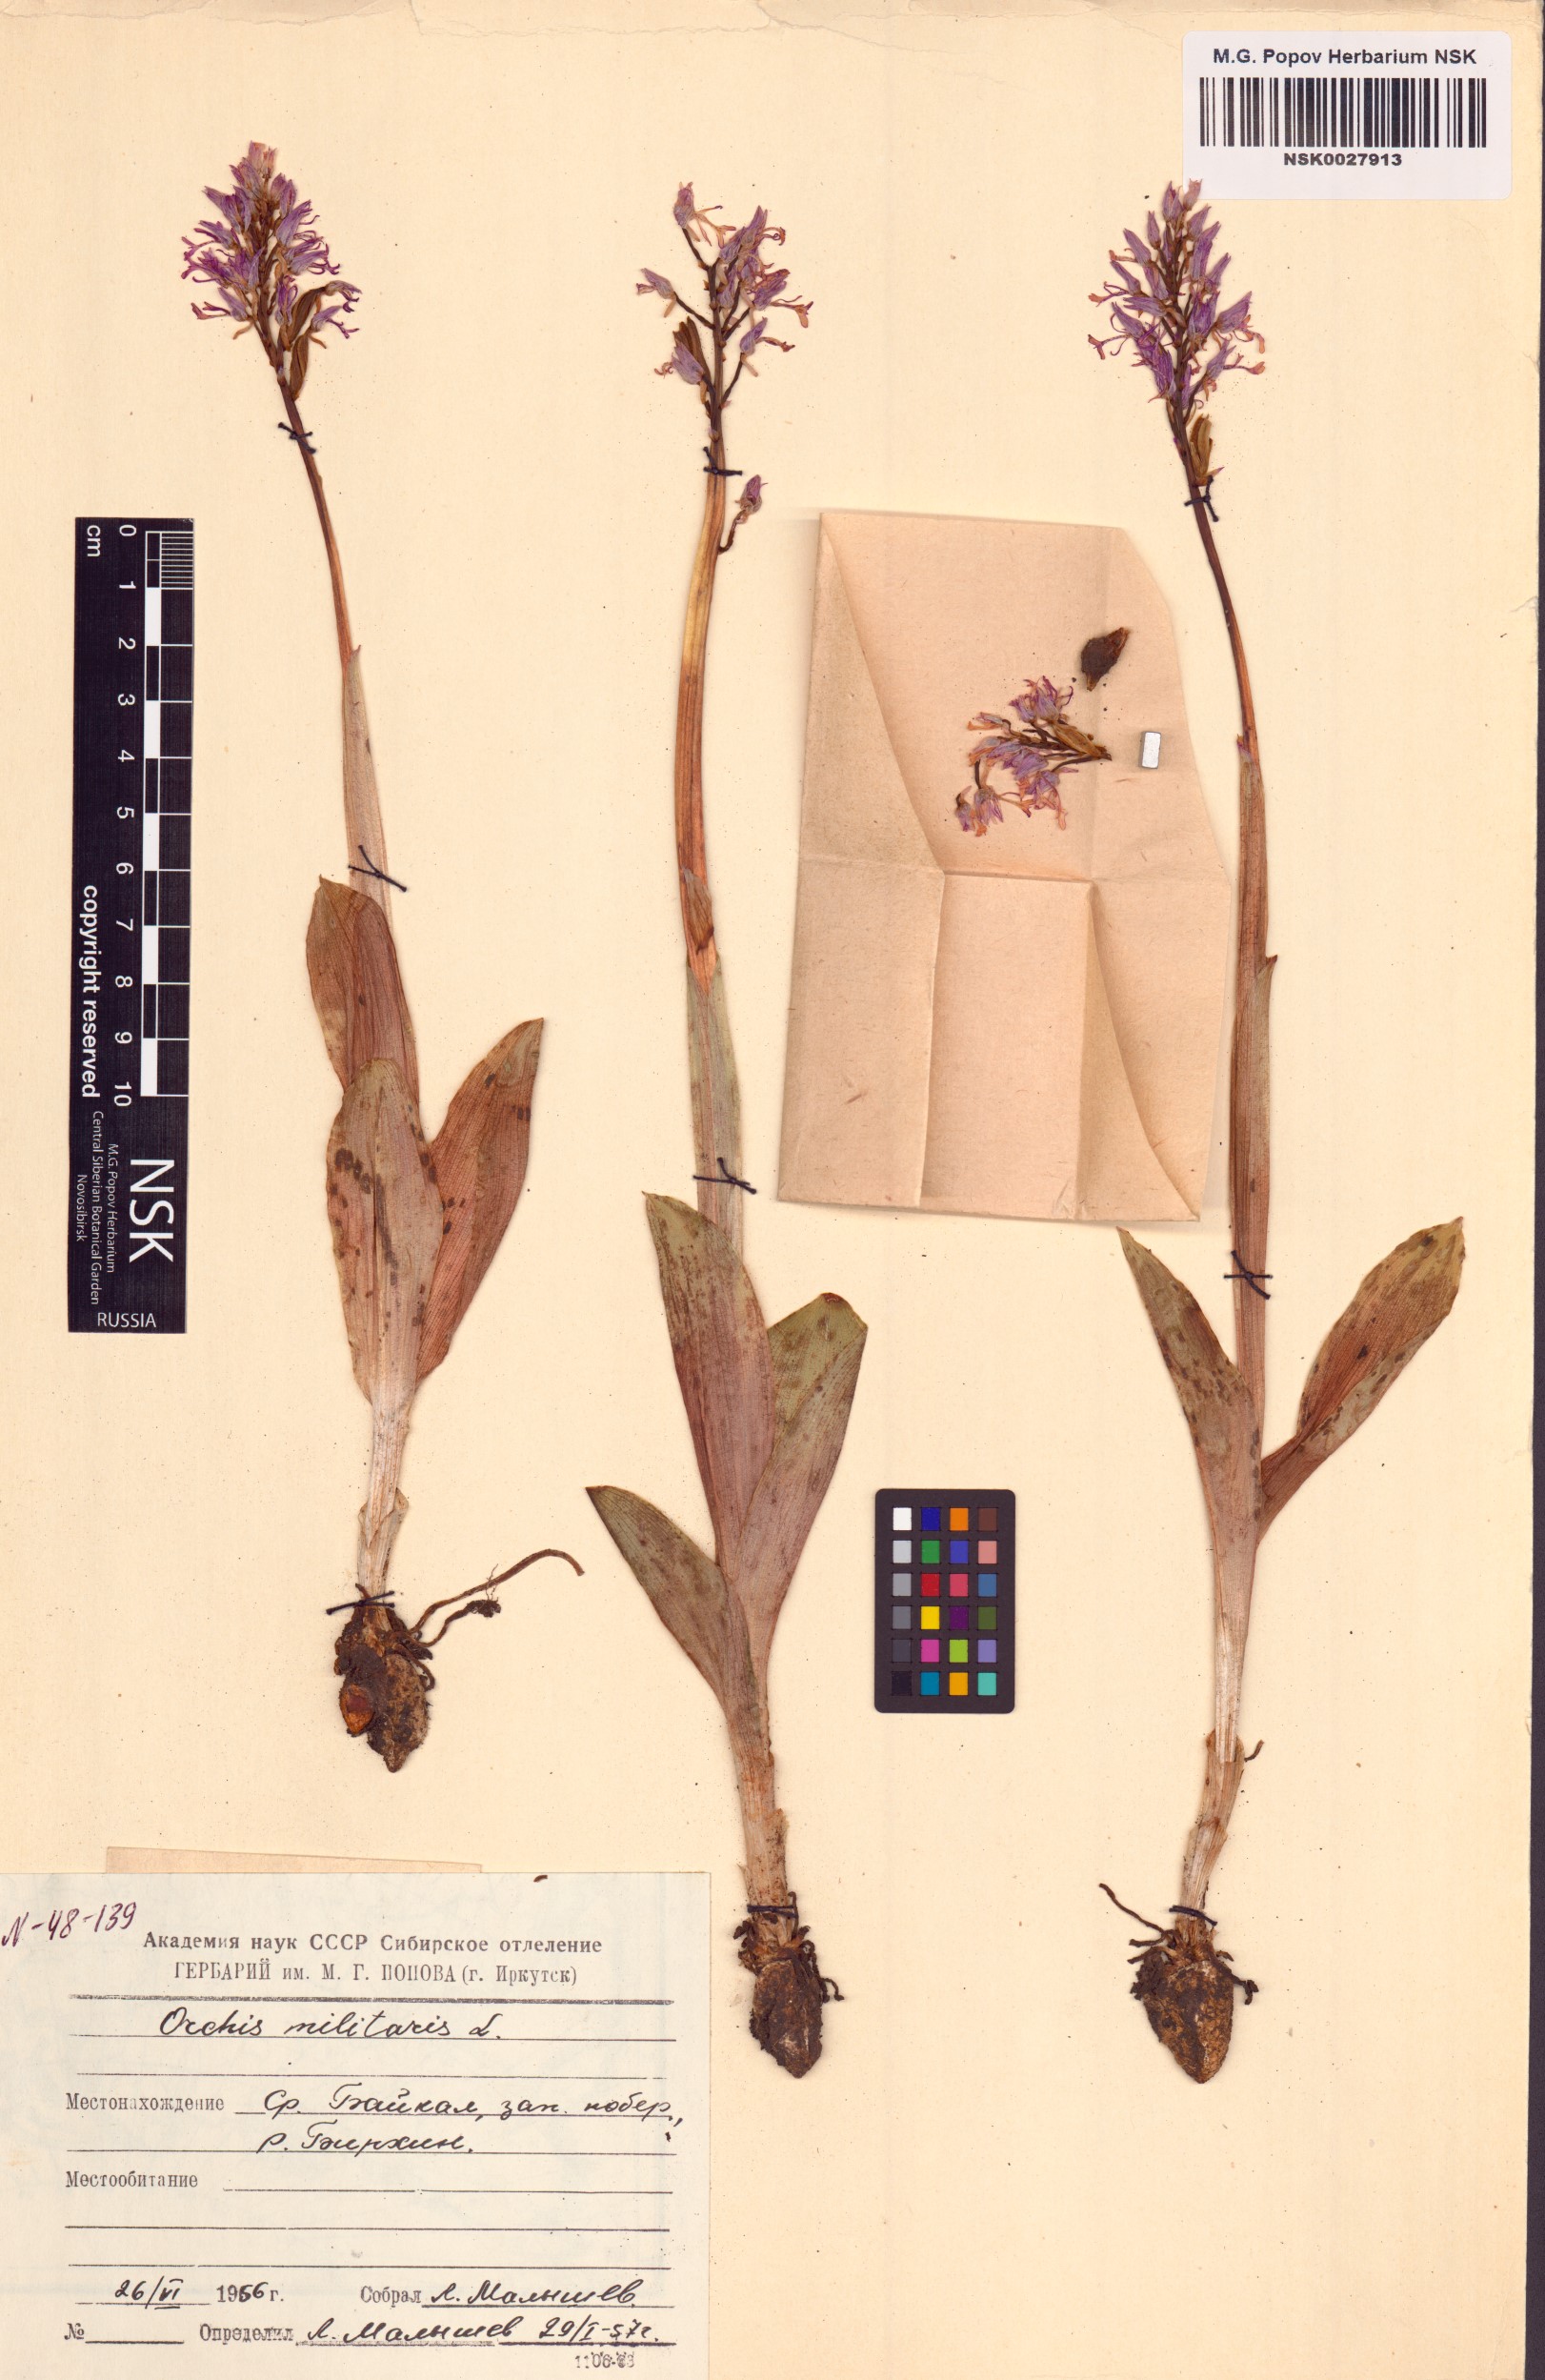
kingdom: Plantae
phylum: Tracheophyta
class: Liliopsida
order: Asparagales
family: Orchidaceae
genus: Orchis
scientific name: Orchis militaris
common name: Military orchid
